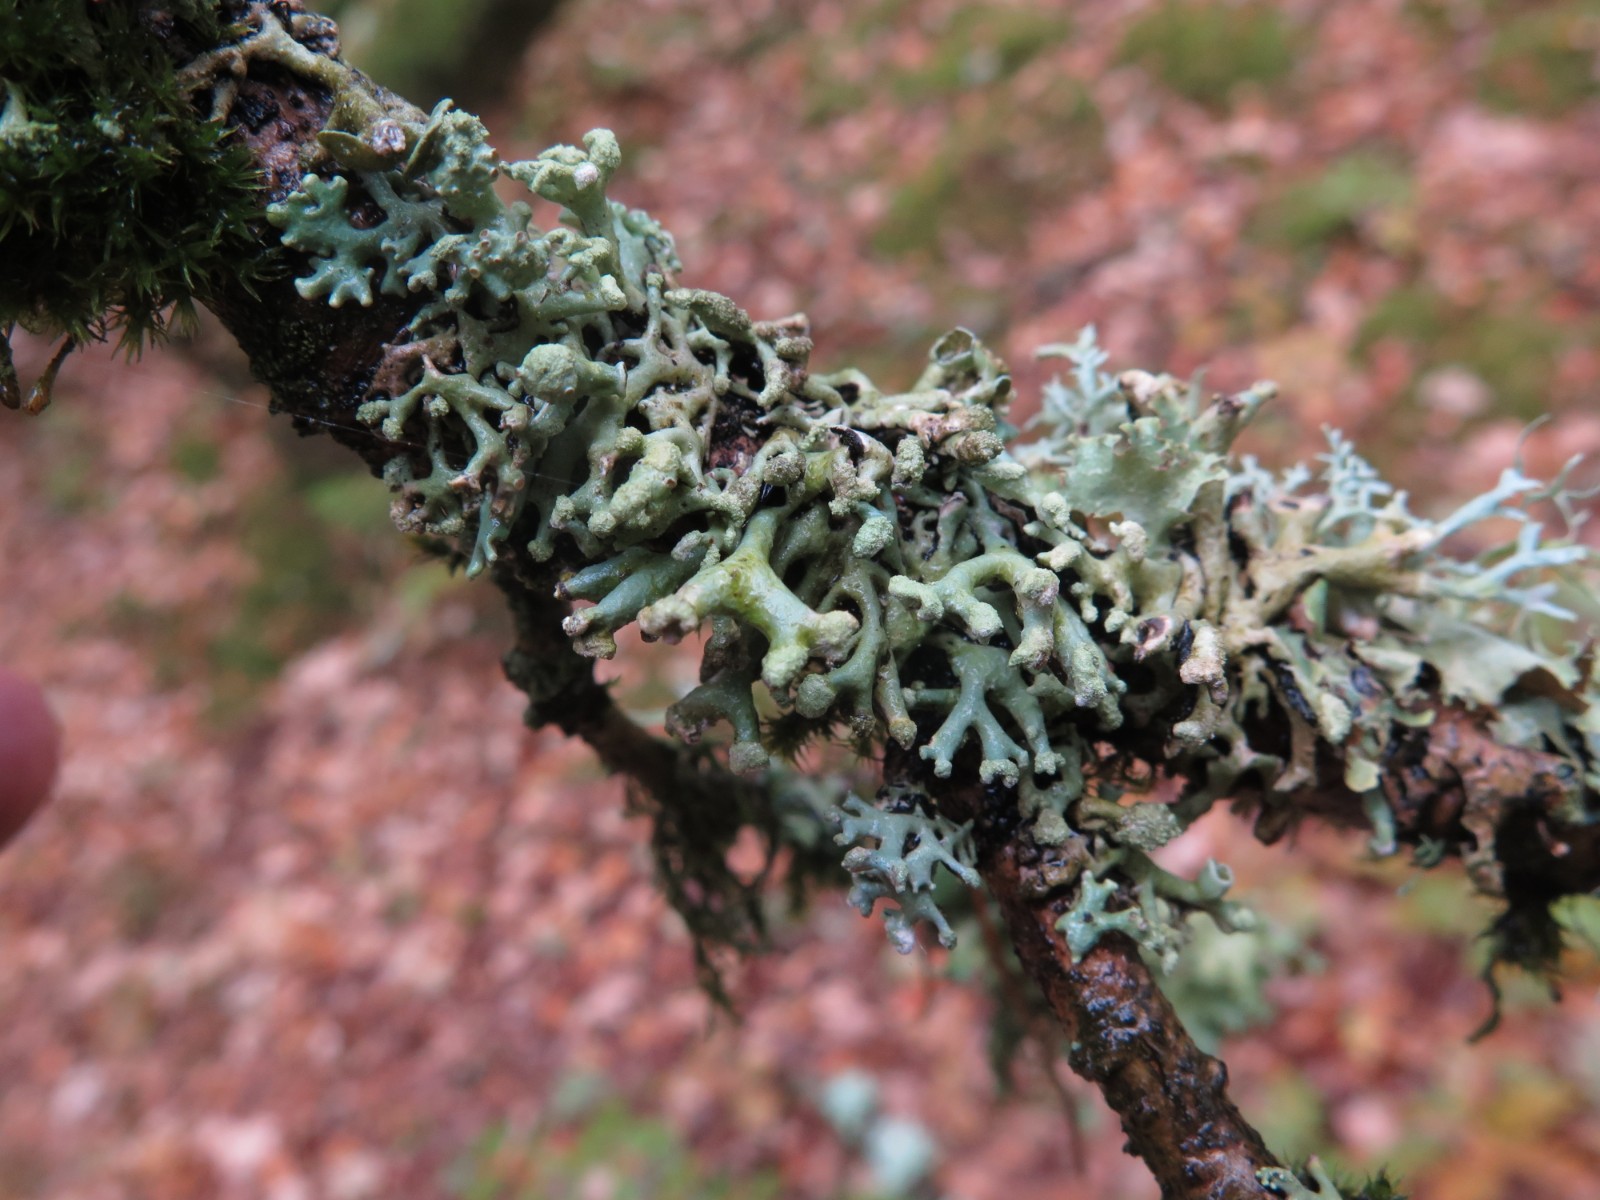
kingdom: Fungi
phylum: Ascomycota
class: Lecanoromycetes
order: Lecanorales
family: Parmeliaceae
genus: Hypogymnia
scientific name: Hypogymnia tubulosa
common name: finger-kvistlav
